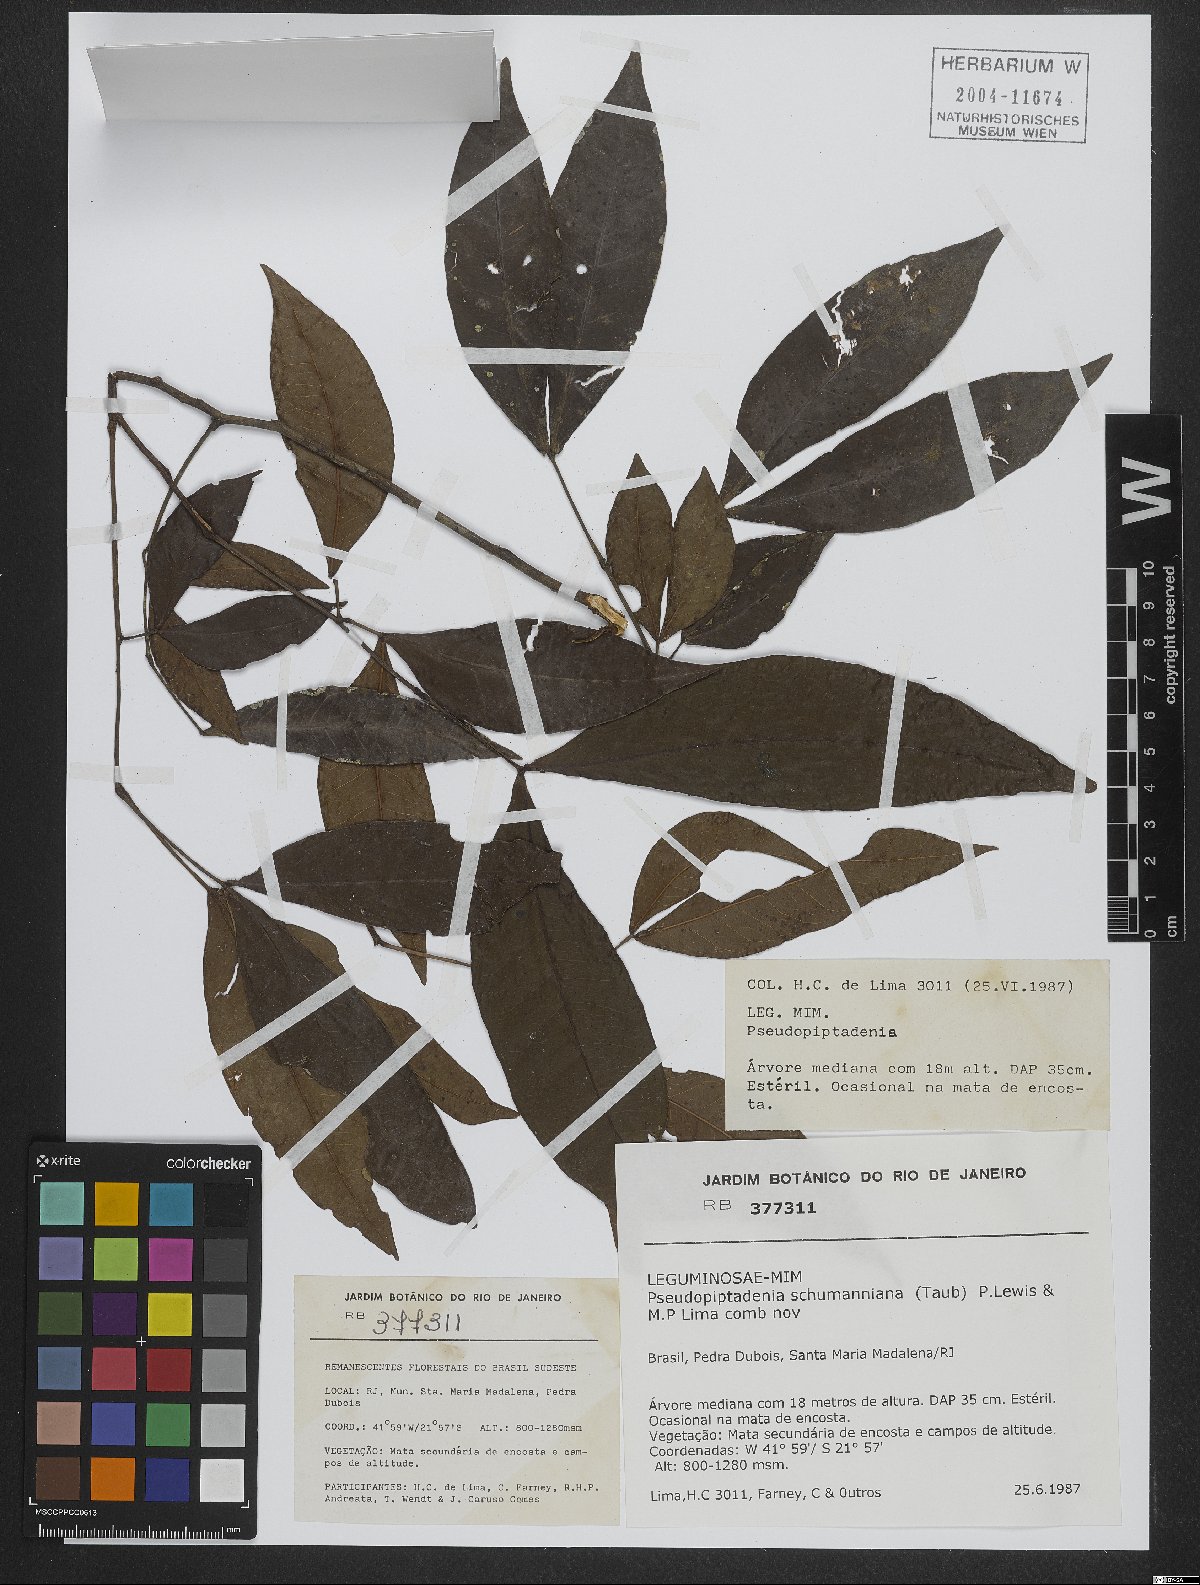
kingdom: Plantae
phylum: Tracheophyta
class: Magnoliopsida
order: Fabales
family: Fabaceae
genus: Pseudopiptadenia
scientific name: Pseudopiptadenia schumanniana
